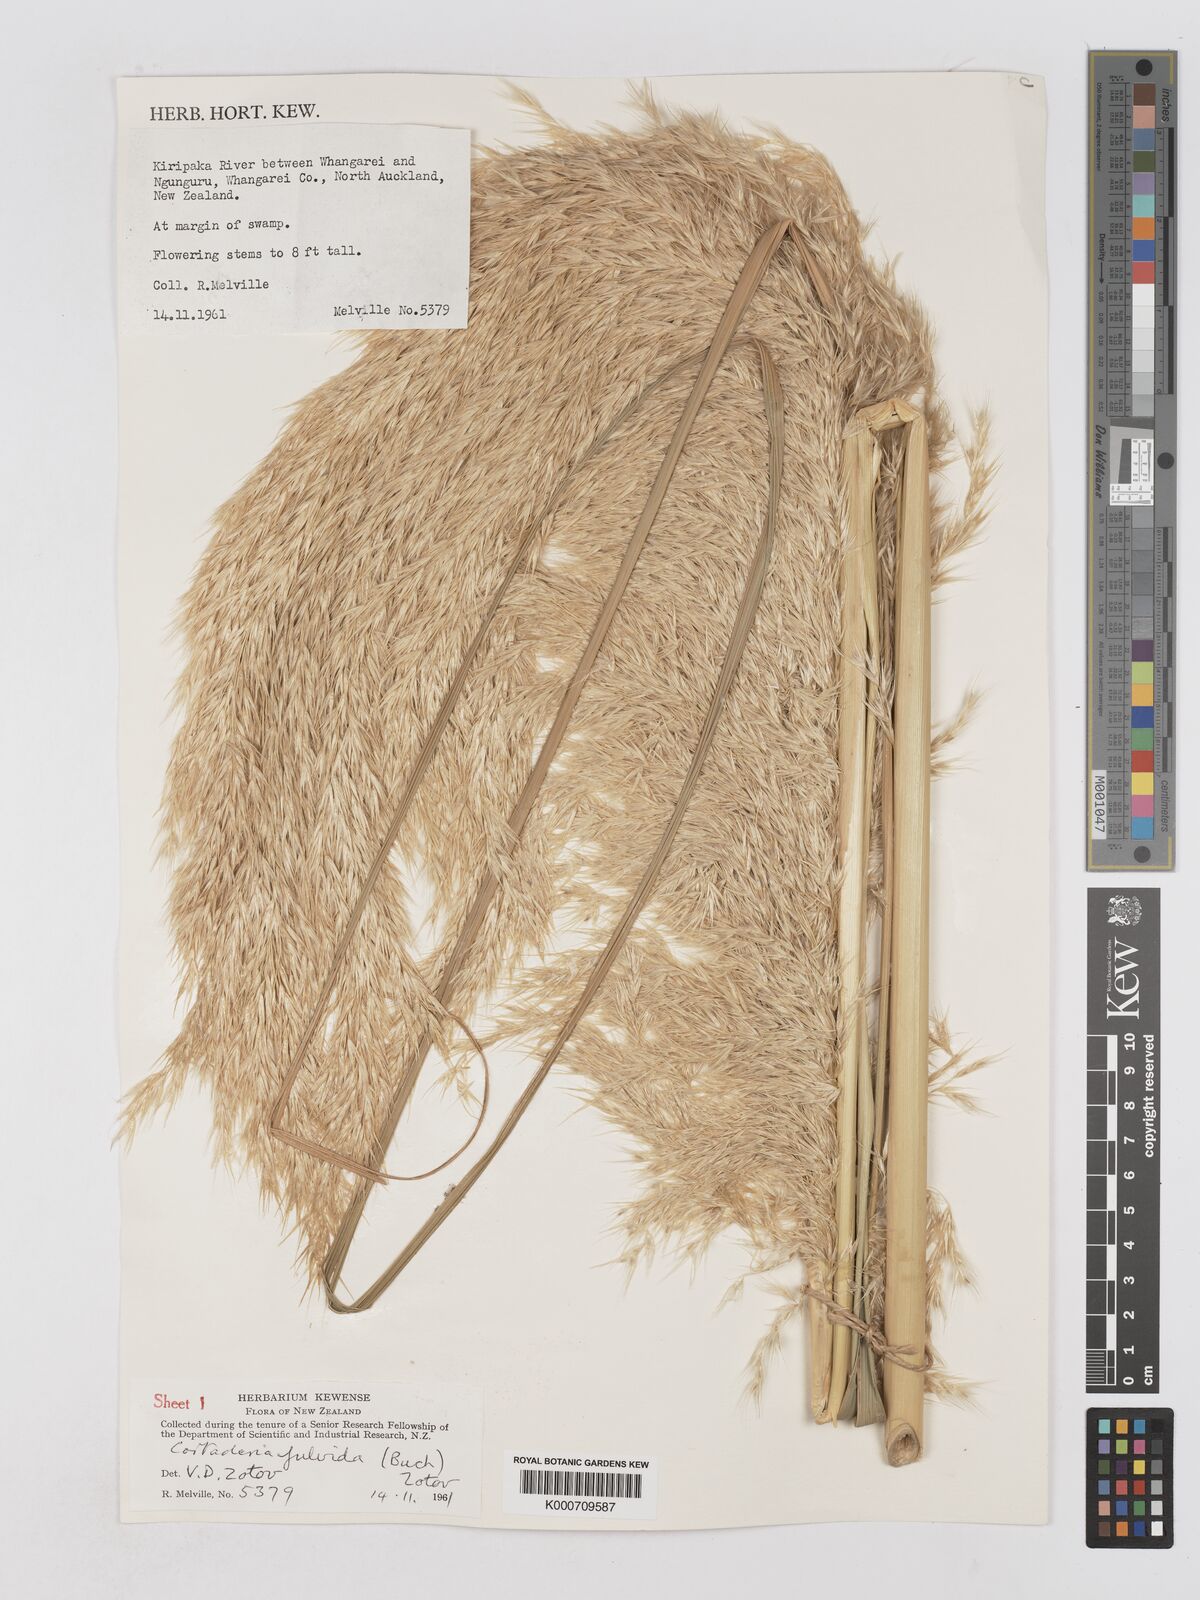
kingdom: Plantae
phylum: Tracheophyta
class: Liliopsida
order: Poales
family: Poaceae
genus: Austroderia
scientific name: Austroderia fulvida
